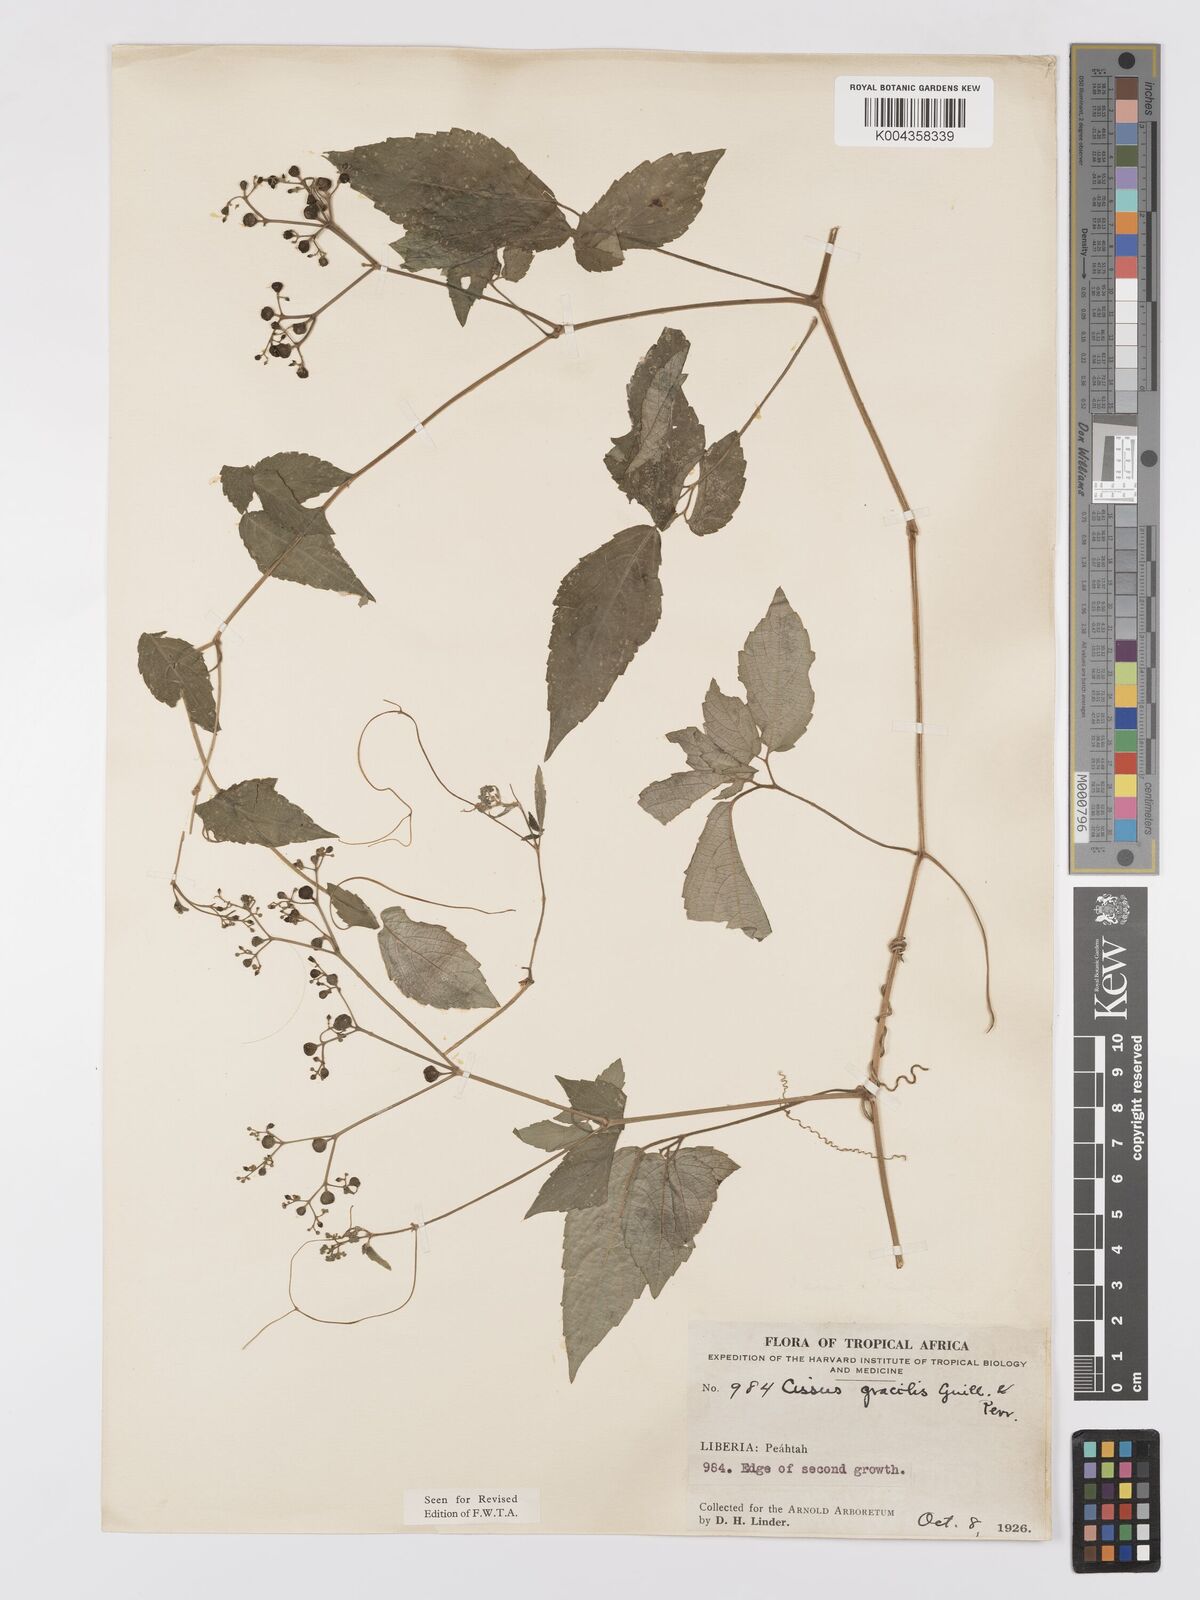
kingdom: Plantae
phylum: Tracheophyta
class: Magnoliopsida
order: Vitales
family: Vitaceae
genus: Afrocayratia
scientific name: Afrocayratia gracilis
